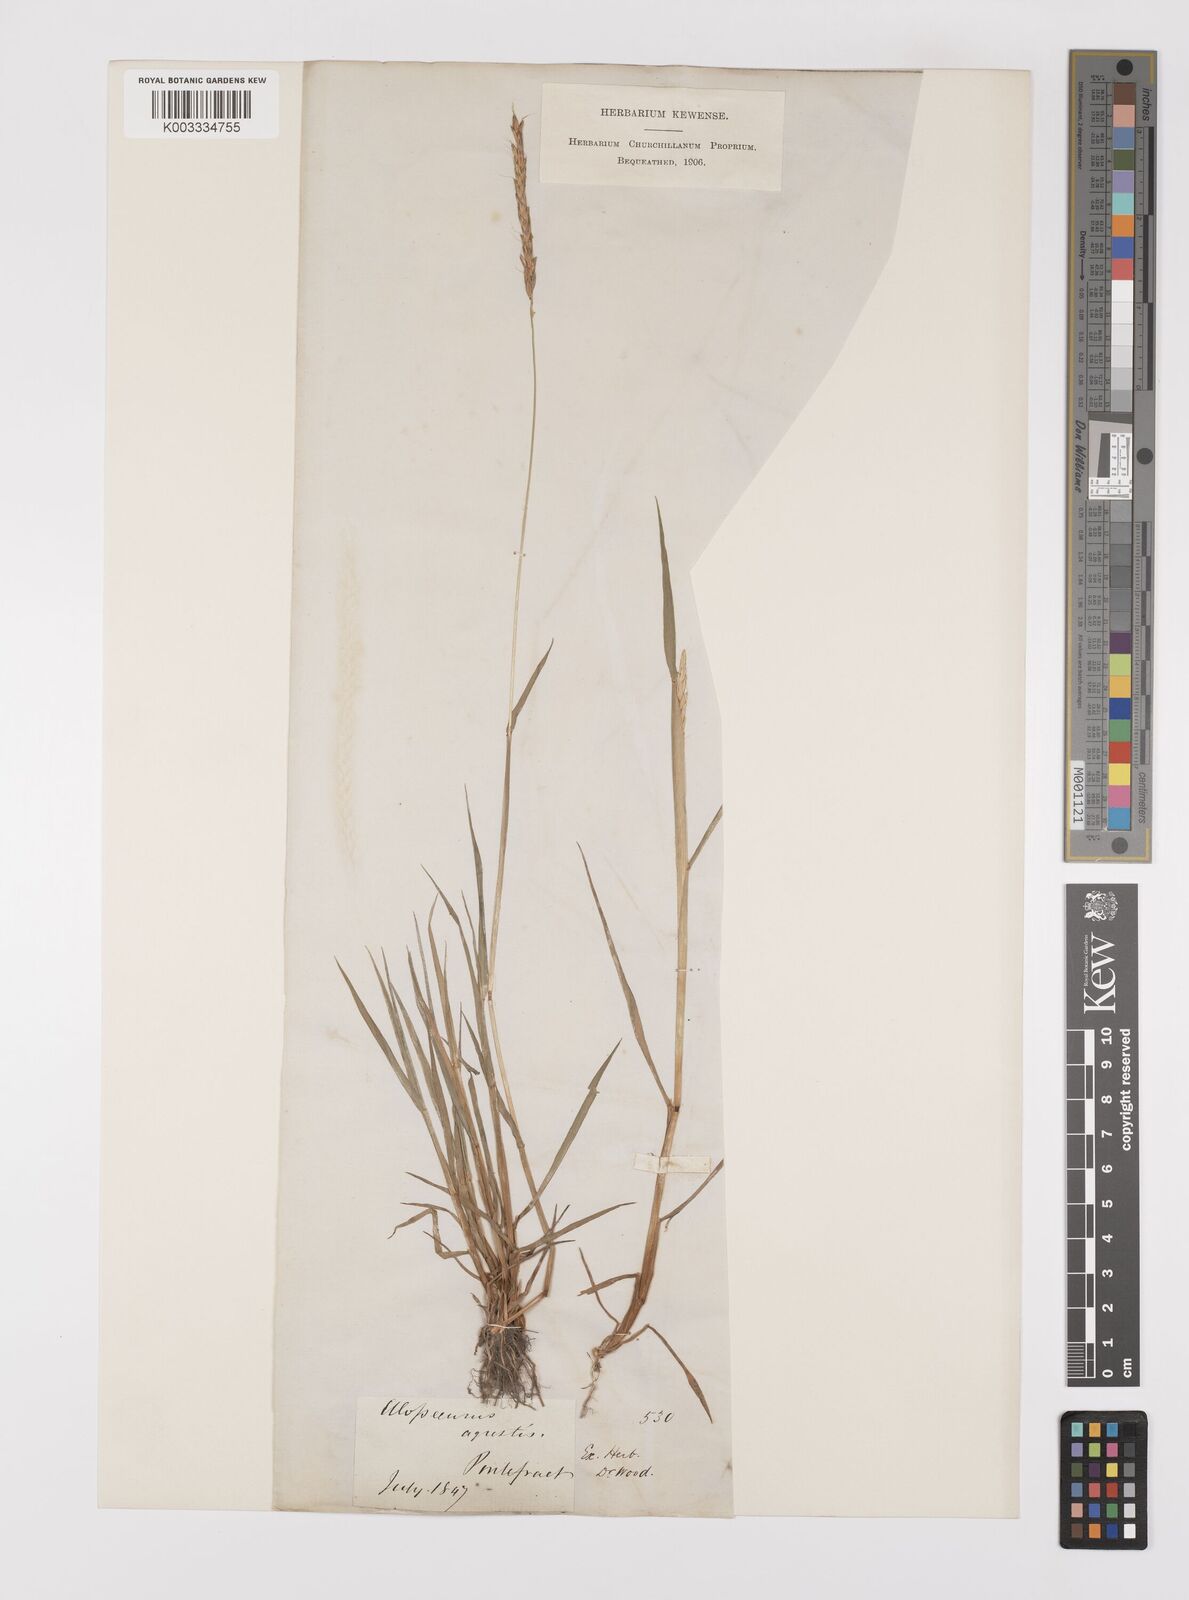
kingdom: Plantae
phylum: Tracheophyta
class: Liliopsida
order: Poales
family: Poaceae
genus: Alopecurus
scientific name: Alopecurus myosuroides
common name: Black-grass
